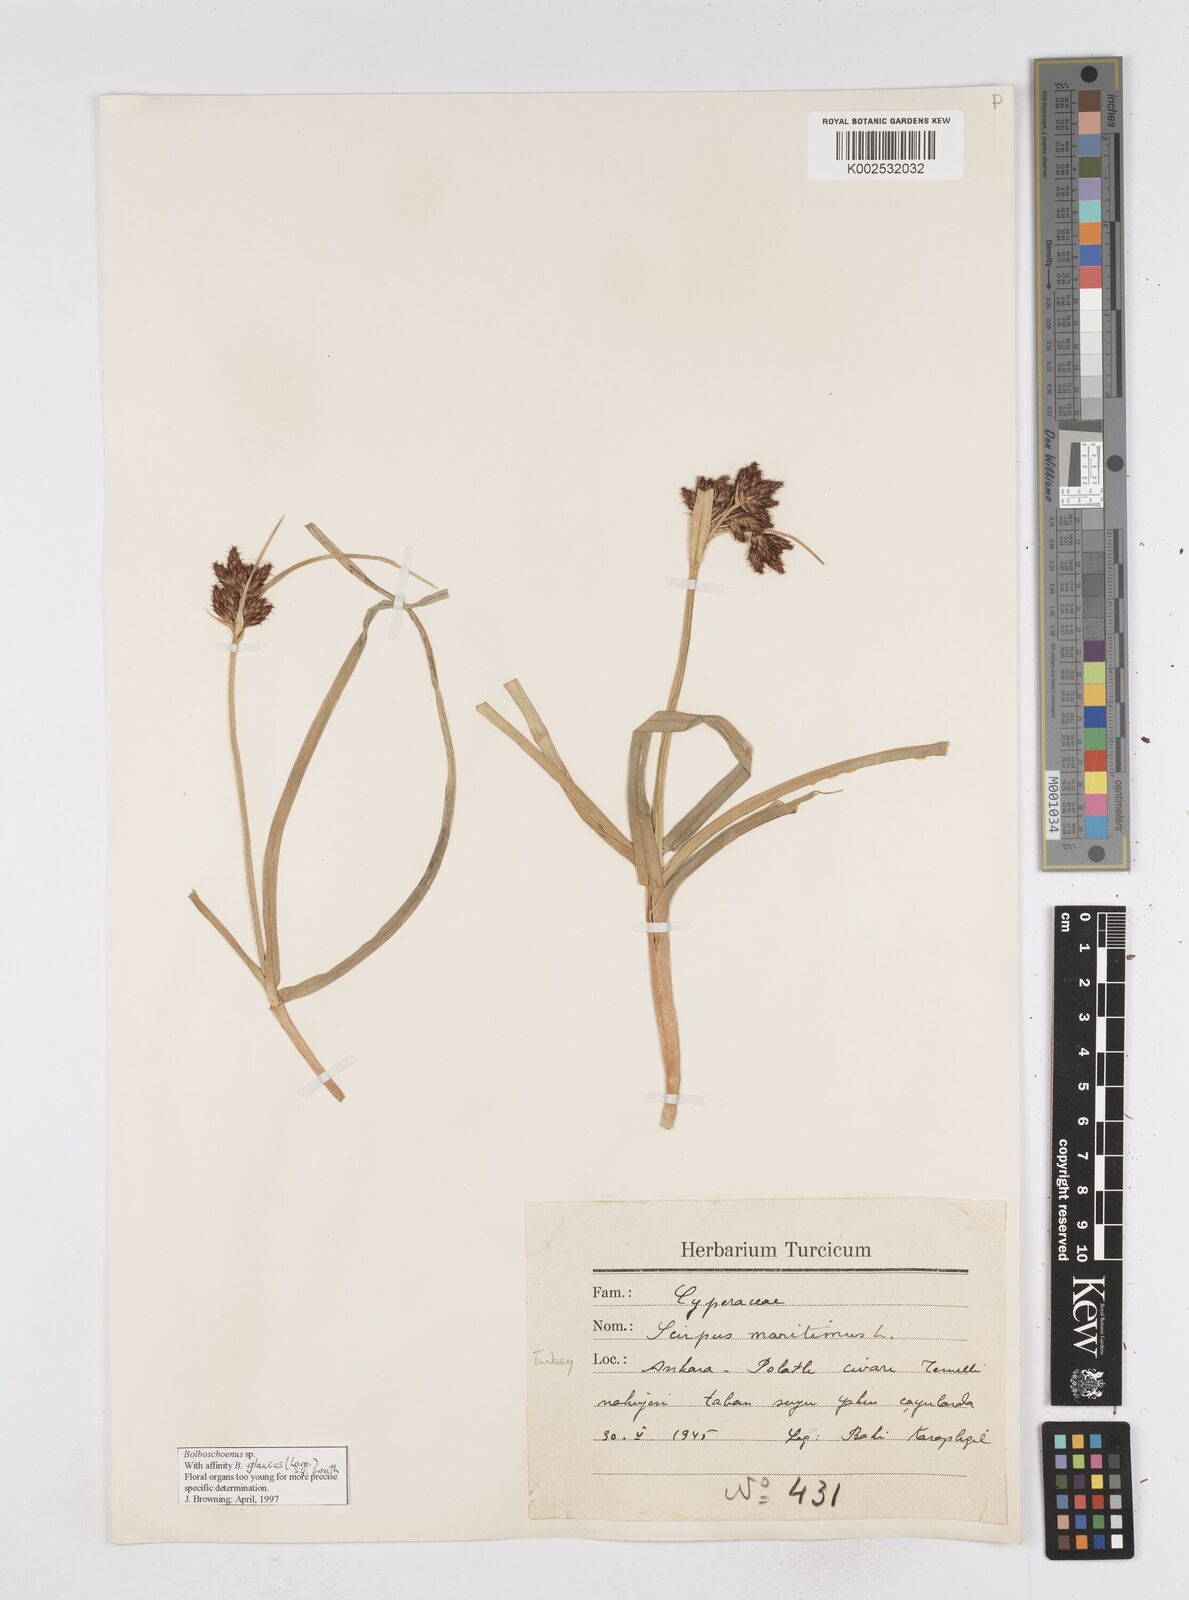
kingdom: Plantae
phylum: Tracheophyta
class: Liliopsida
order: Poales
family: Cyperaceae
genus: Bolboschoenus
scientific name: Bolboschoenus maritimus
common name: Sea club-rush
